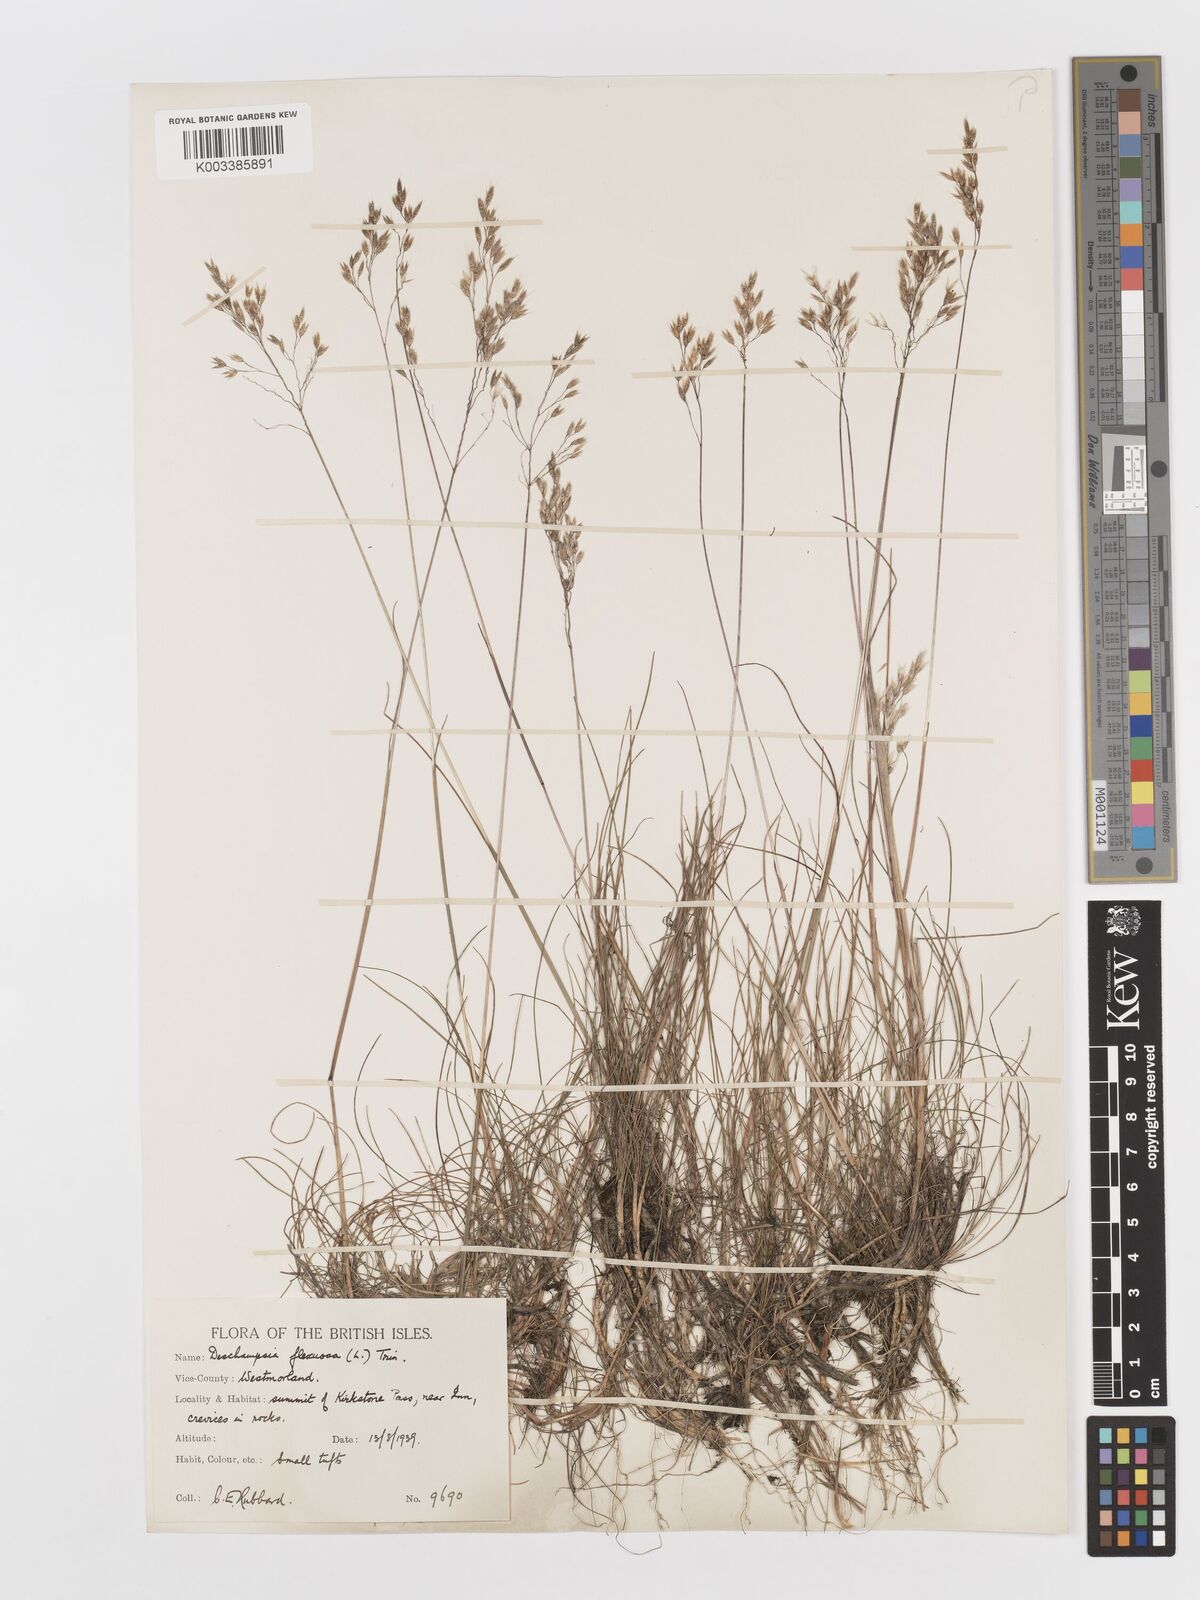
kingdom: Plantae
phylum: Tracheophyta
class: Liliopsida
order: Poales
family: Poaceae
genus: Avenella
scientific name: Avenella flexuosa
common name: Wavy hairgrass
